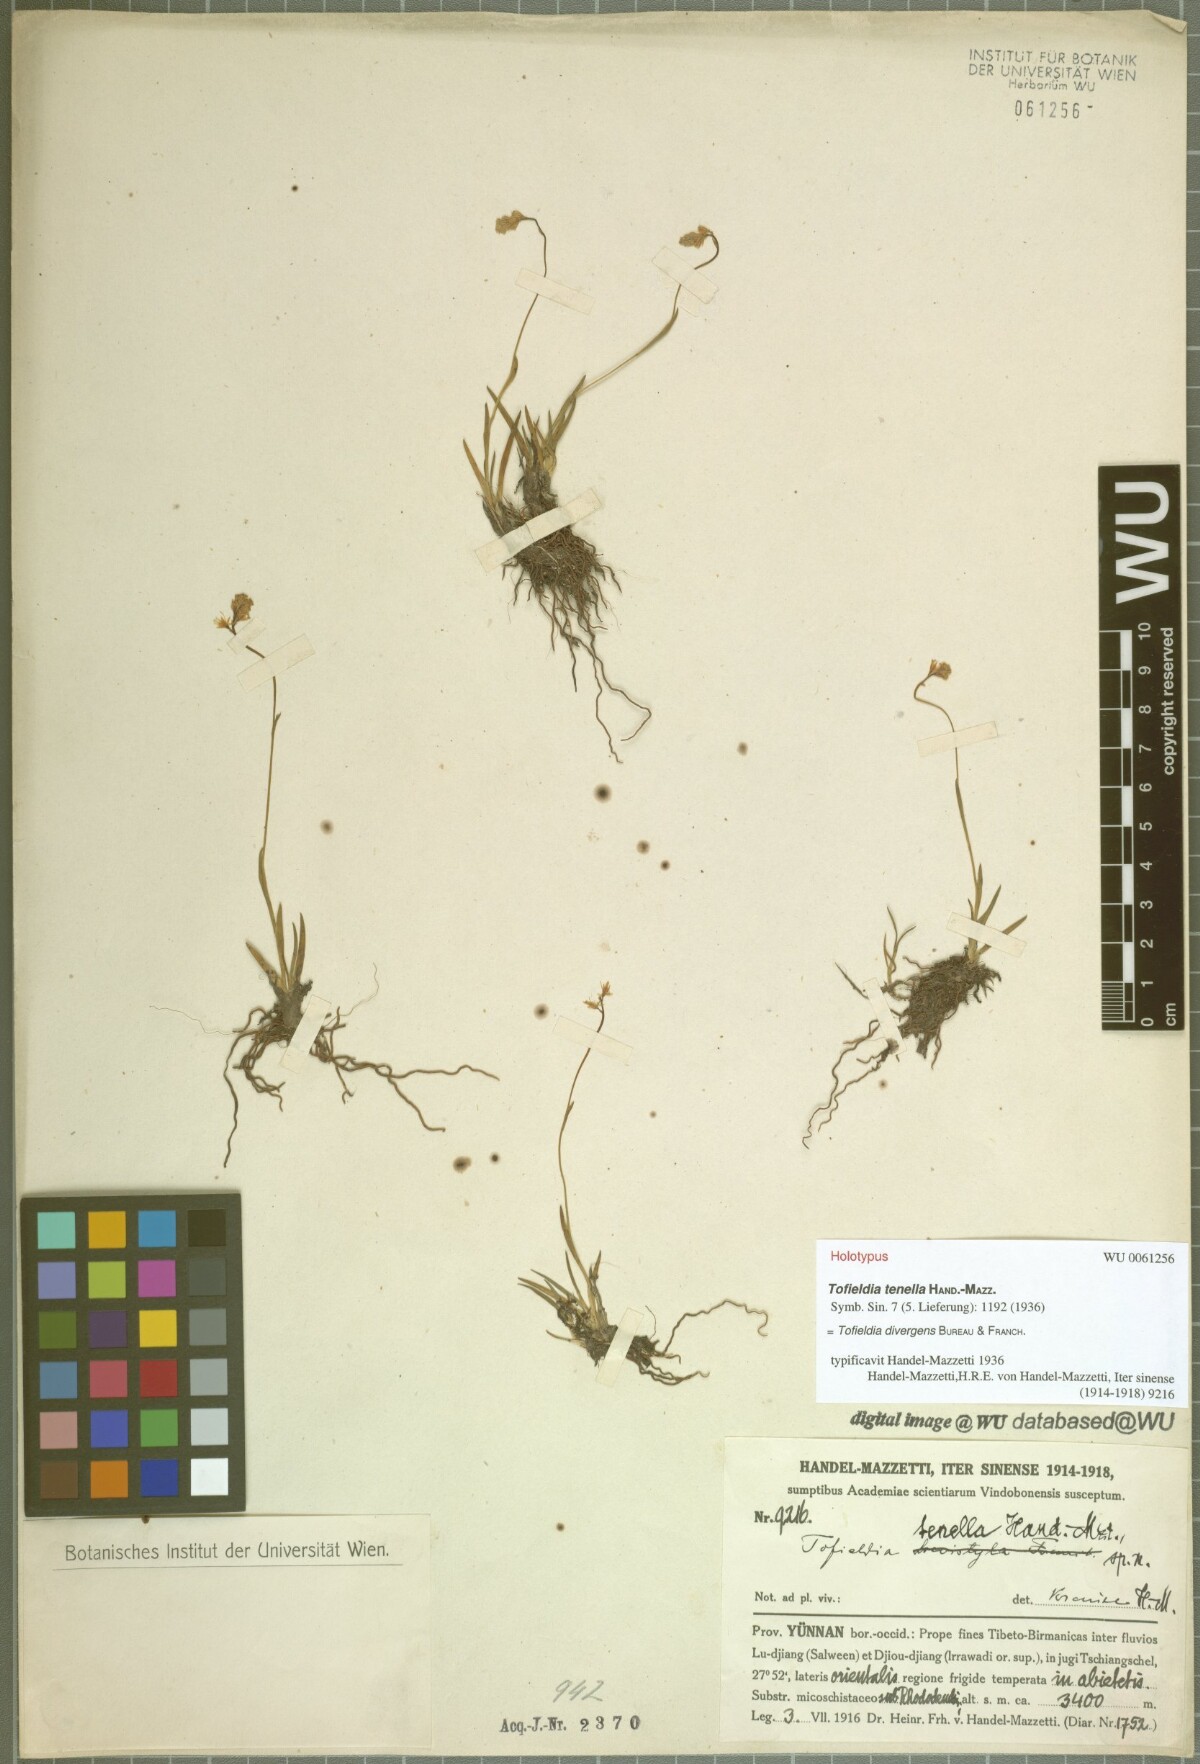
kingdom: Plantae
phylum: Tracheophyta
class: Liliopsida
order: Alismatales
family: Tofieldiaceae
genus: Tofieldia
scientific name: Tofieldia divergens
